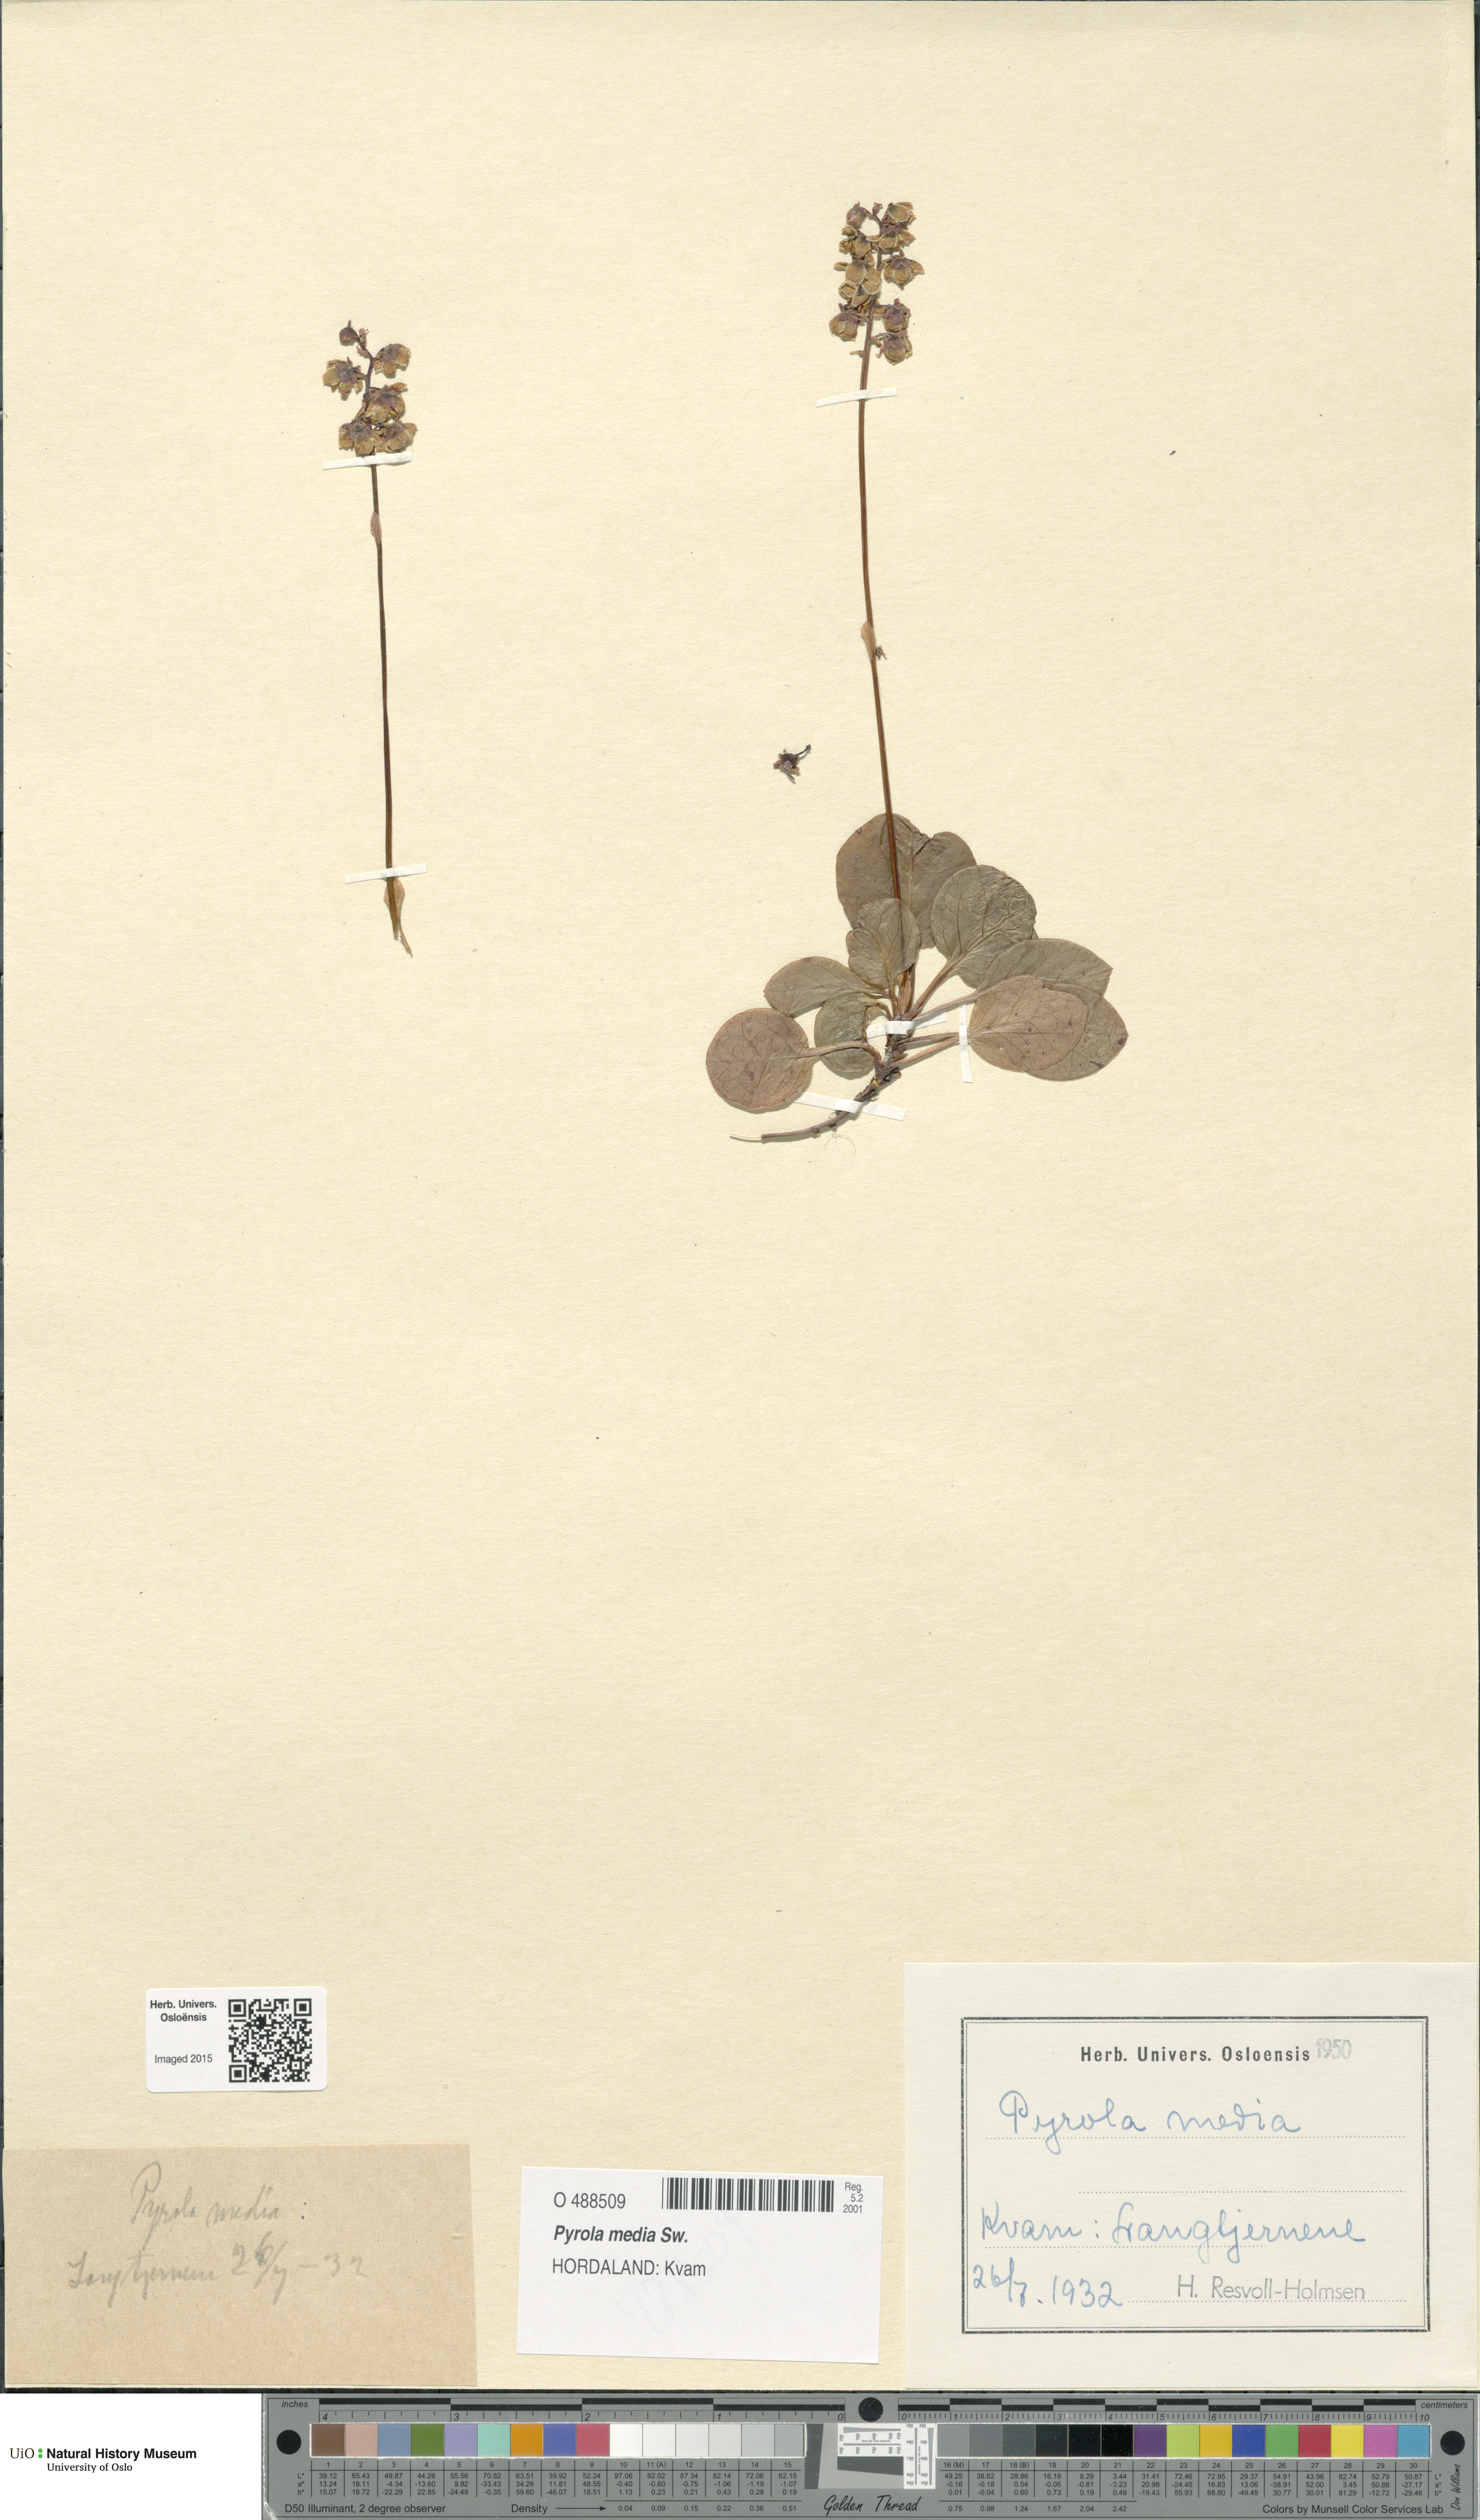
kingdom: Plantae
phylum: Tracheophyta
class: Magnoliopsida
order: Ericales
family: Ericaceae
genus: Pyrola
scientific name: Pyrola media
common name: Intermediate wintergreen
